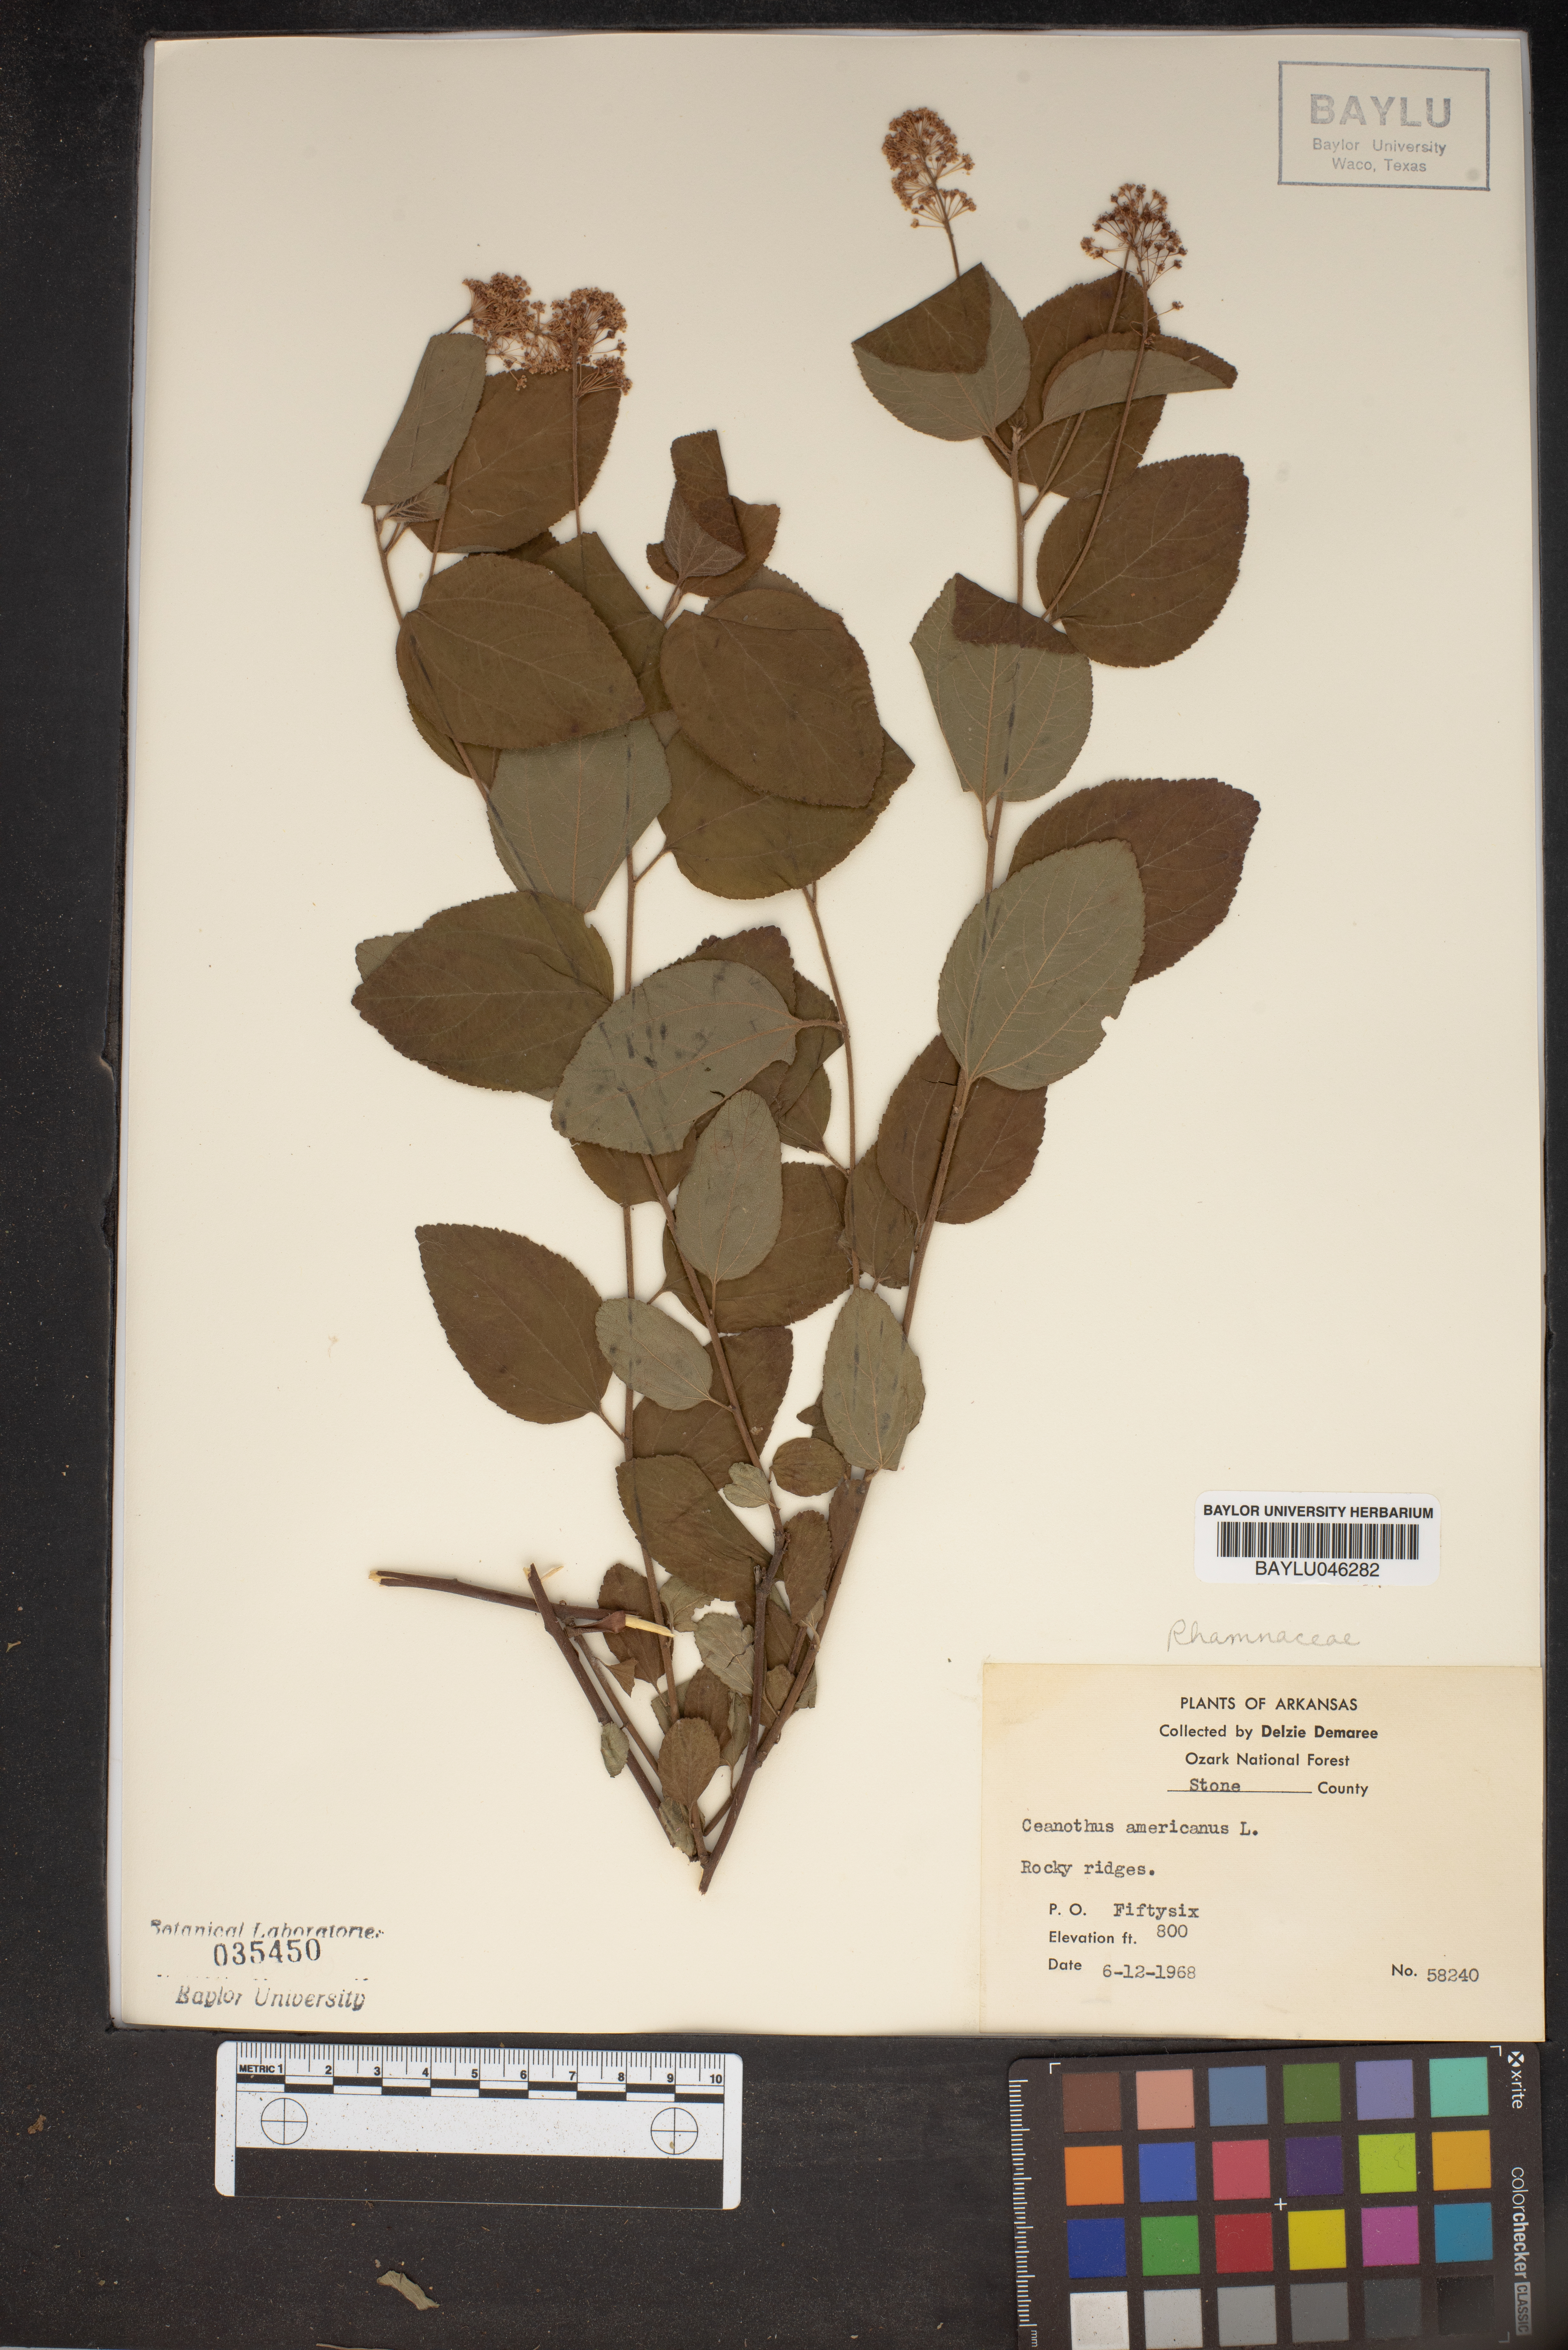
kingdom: Plantae
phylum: Tracheophyta
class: Magnoliopsida
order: Rosales
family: Rhamnaceae
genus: Ceanothus
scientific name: Ceanothus americanus
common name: Redroot
